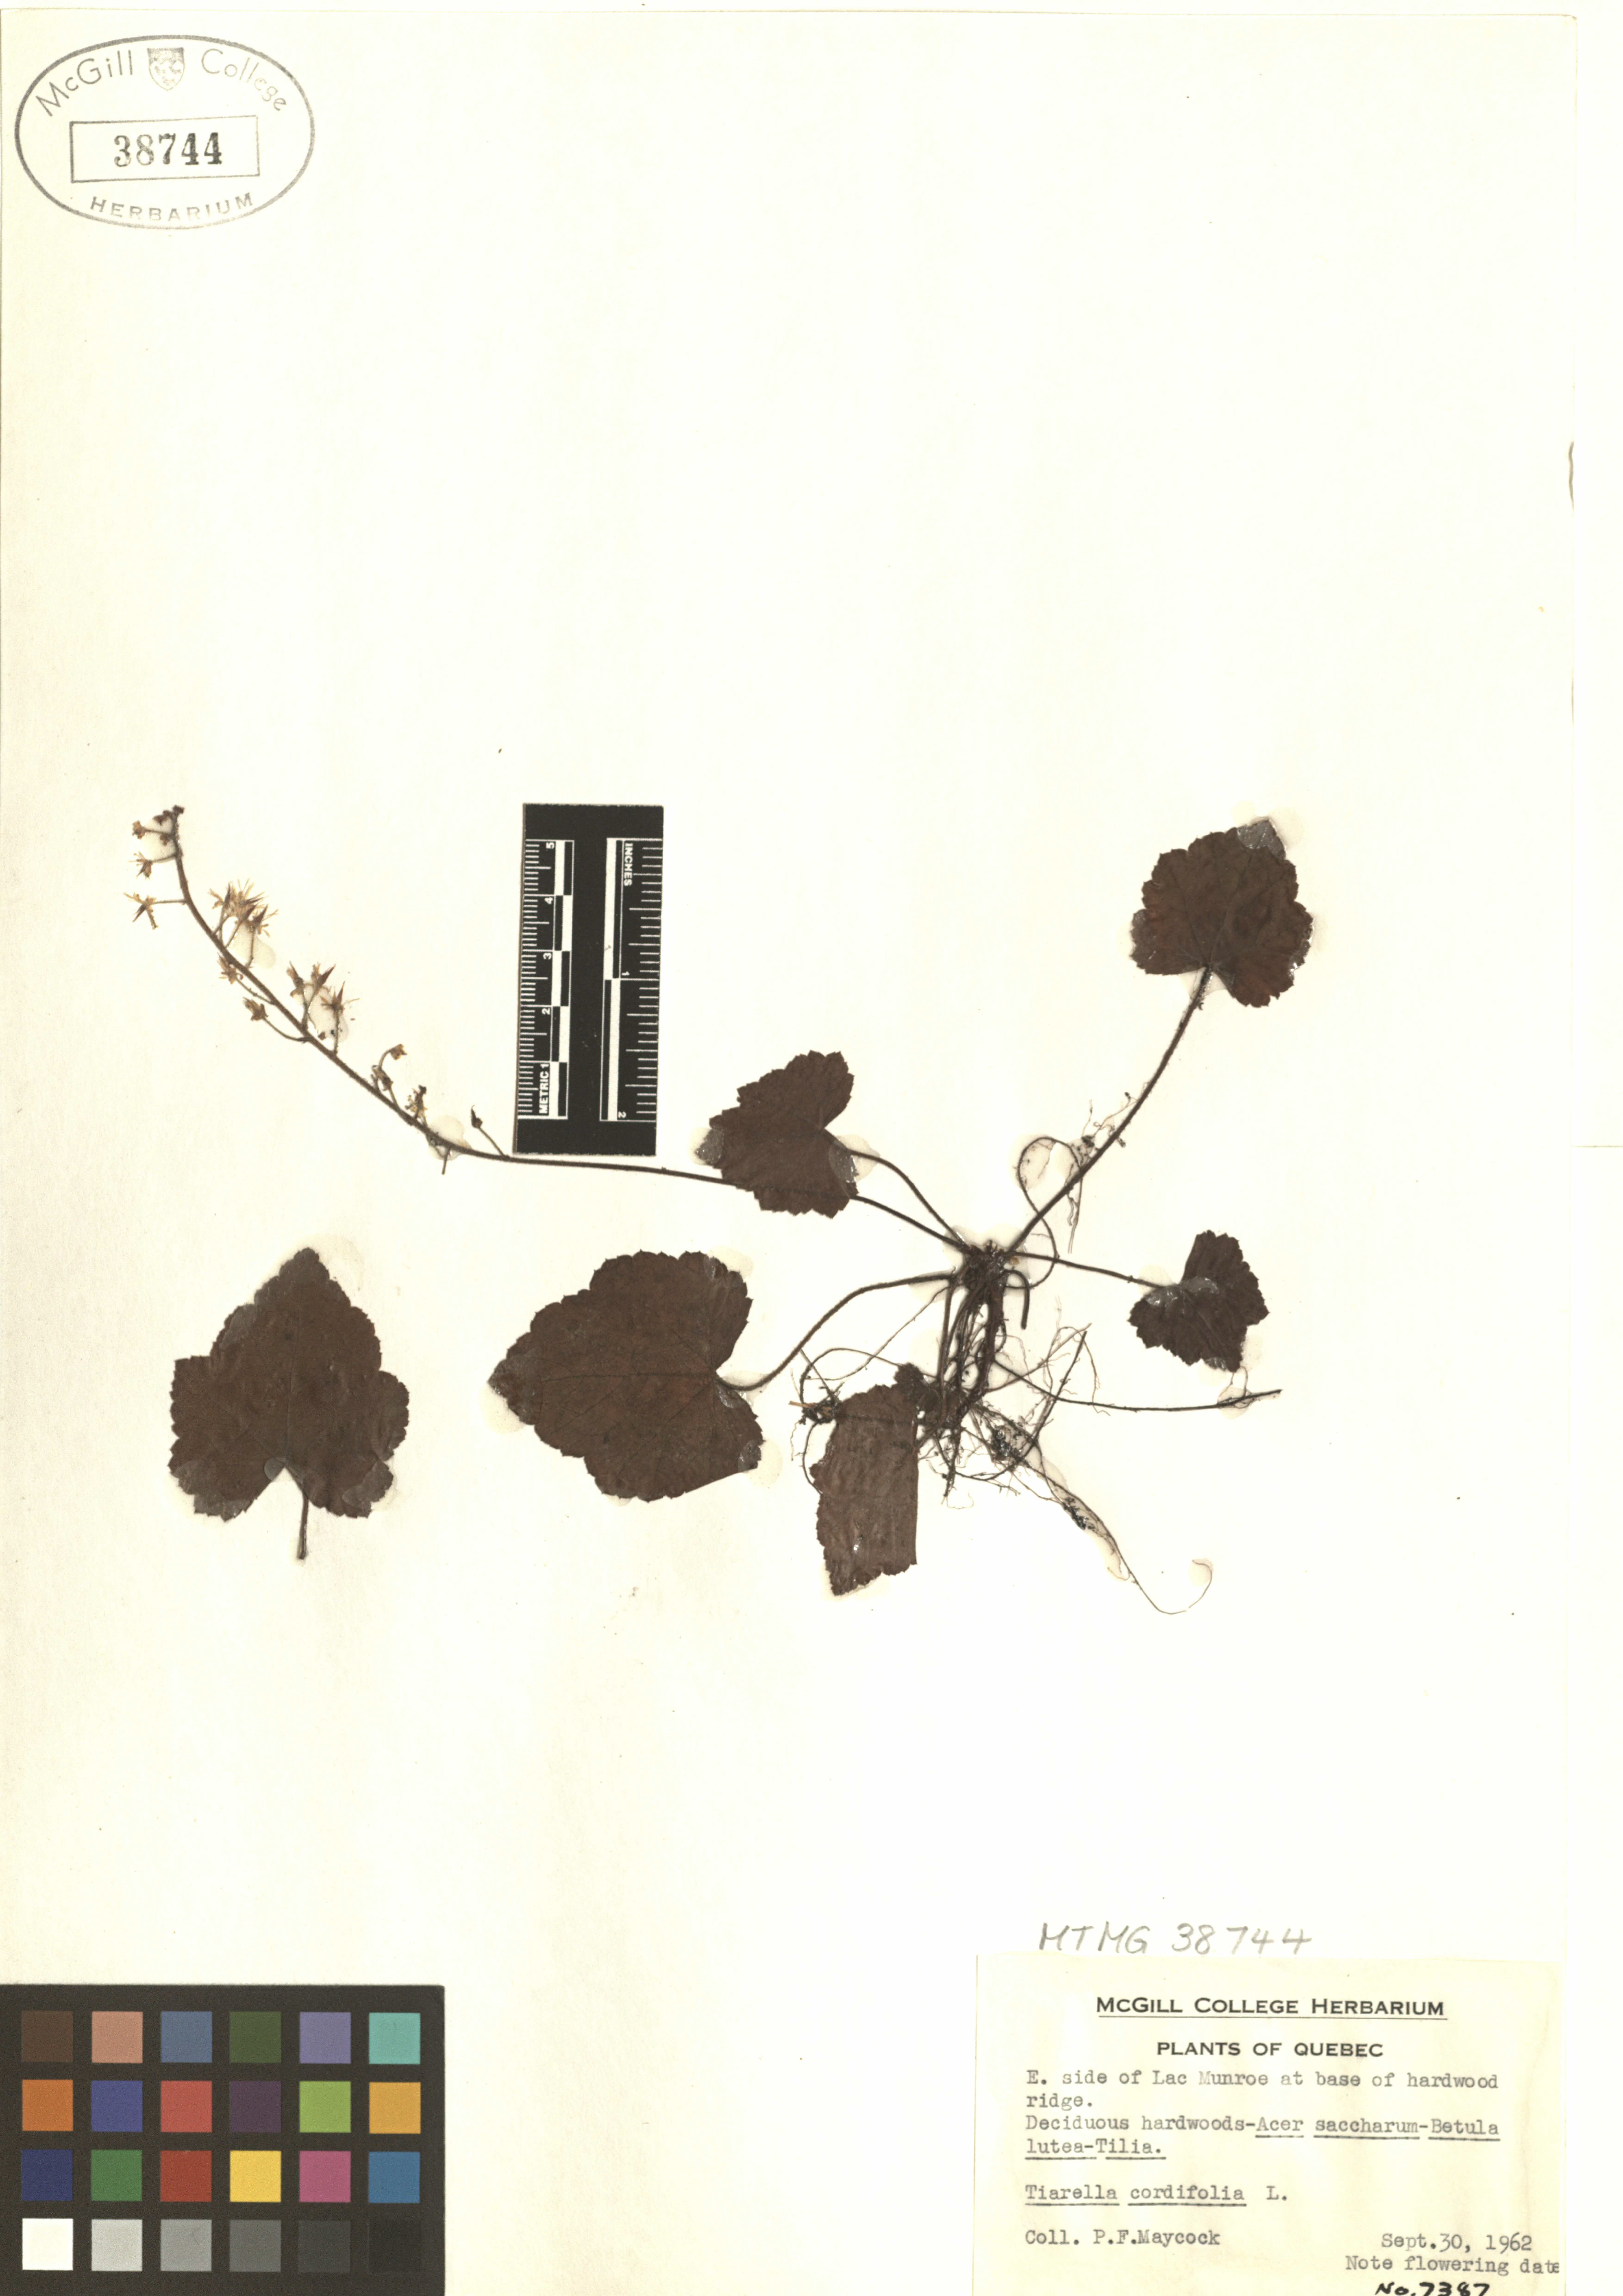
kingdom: Plantae
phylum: Tracheophyta
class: Magnoliopsida
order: Saxifragales
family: Saxifragaceae
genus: Tiarella
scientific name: Tiarella cordifolia
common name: Foamflower
